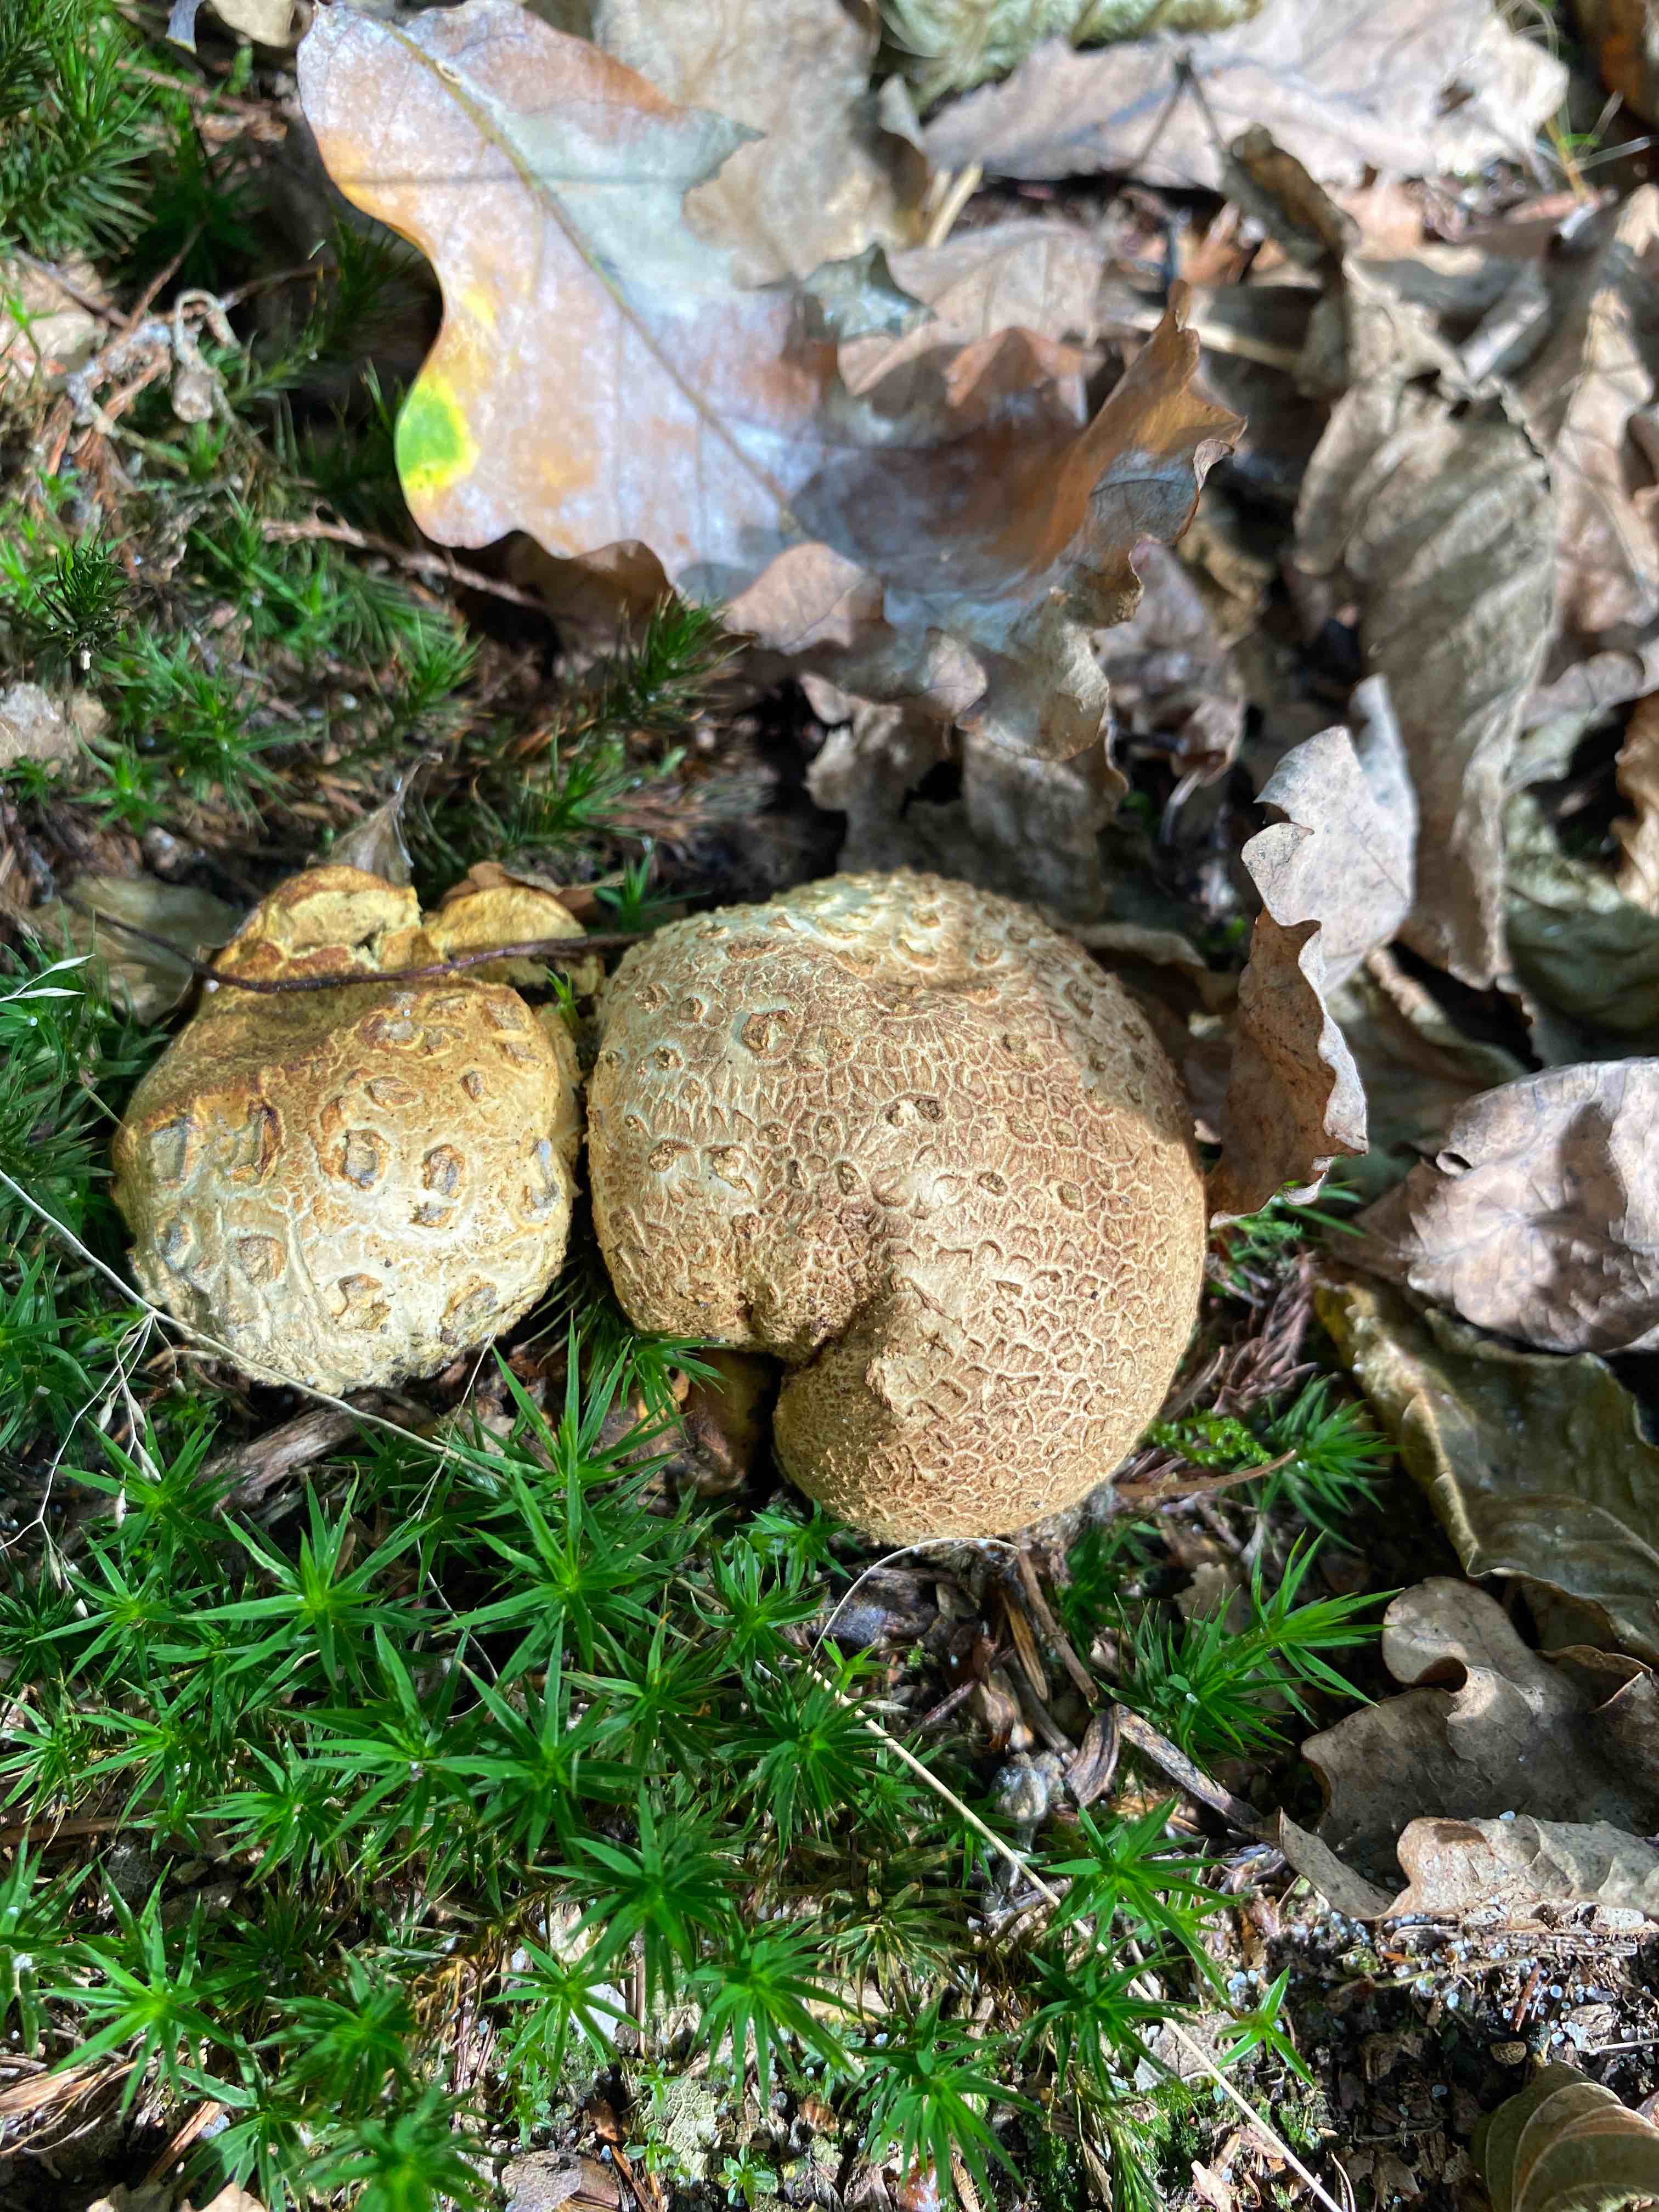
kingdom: Fungi
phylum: Basidiomycota
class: Agaricomycetes
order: Boletales
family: Sclerodermataceae
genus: Scleroderma
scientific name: Scleroderma citrinum
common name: almindelig bruskbold
